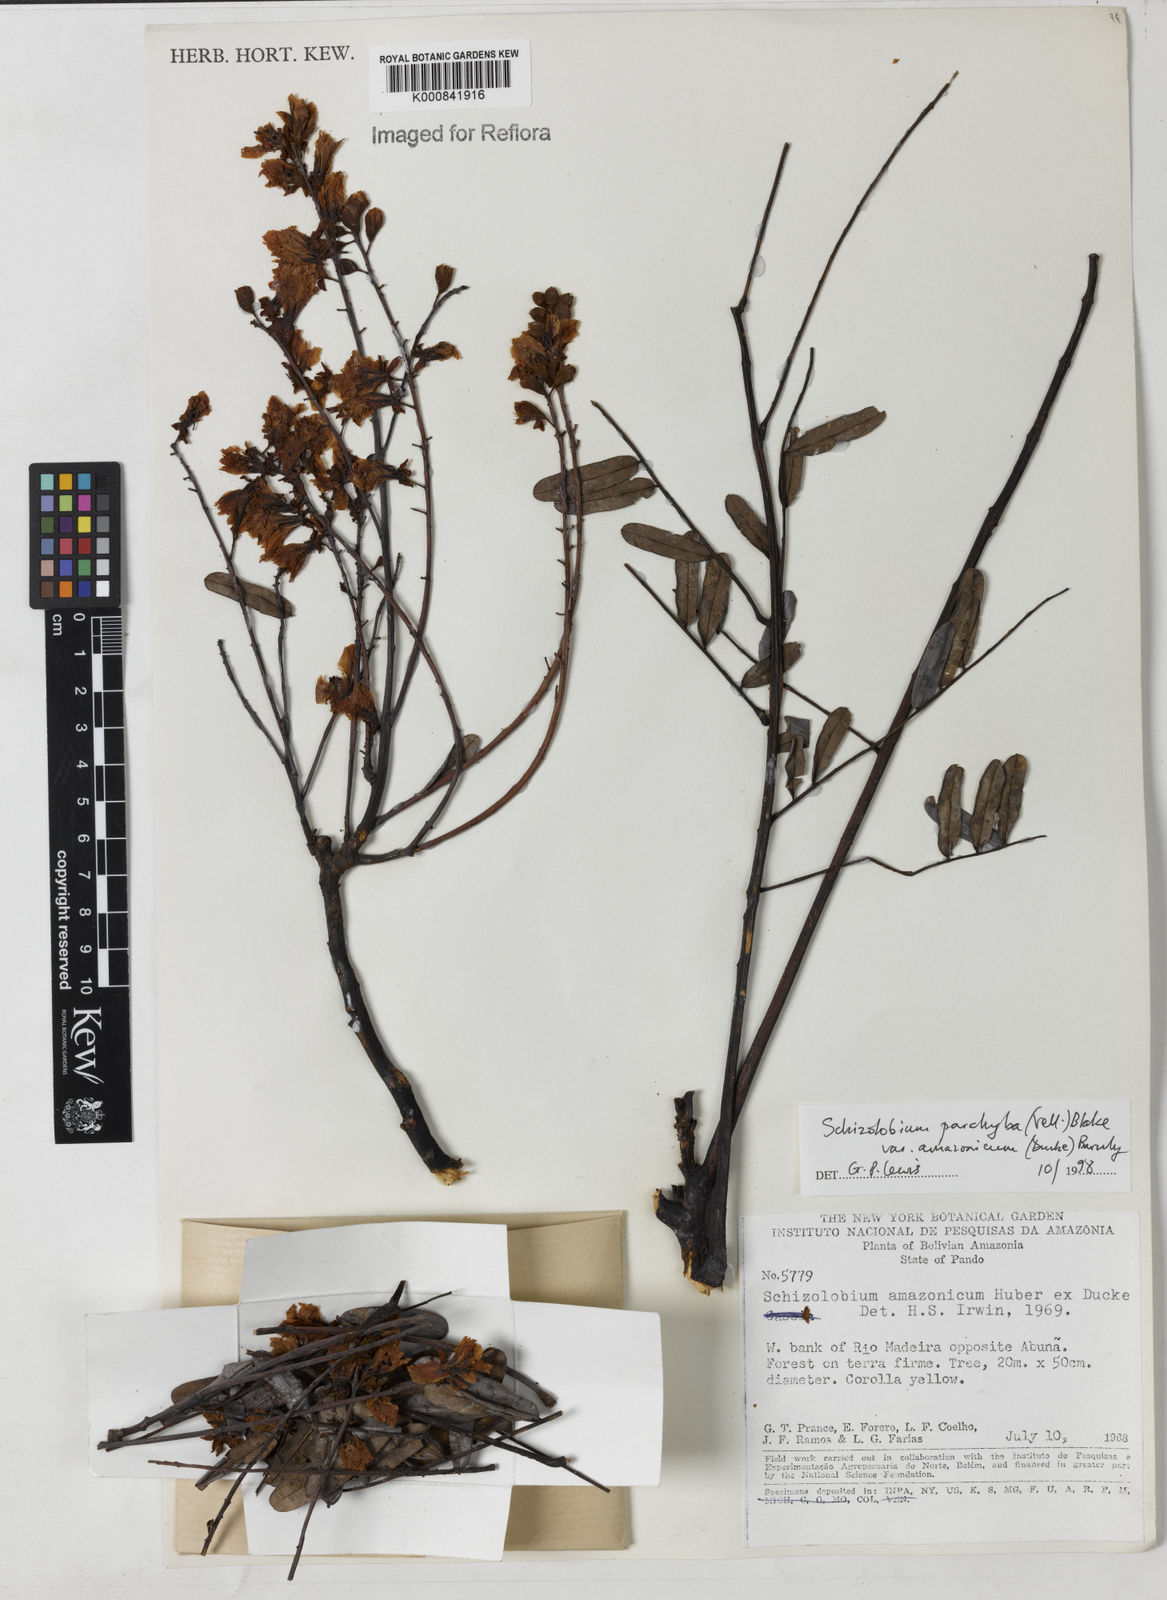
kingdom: Plantae
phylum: Tracheophyta
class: Magnoliopsida
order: Fabales
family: Fabaceae
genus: Schizolobium
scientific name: Schizolobium parahyba
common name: Brazilian firetree
